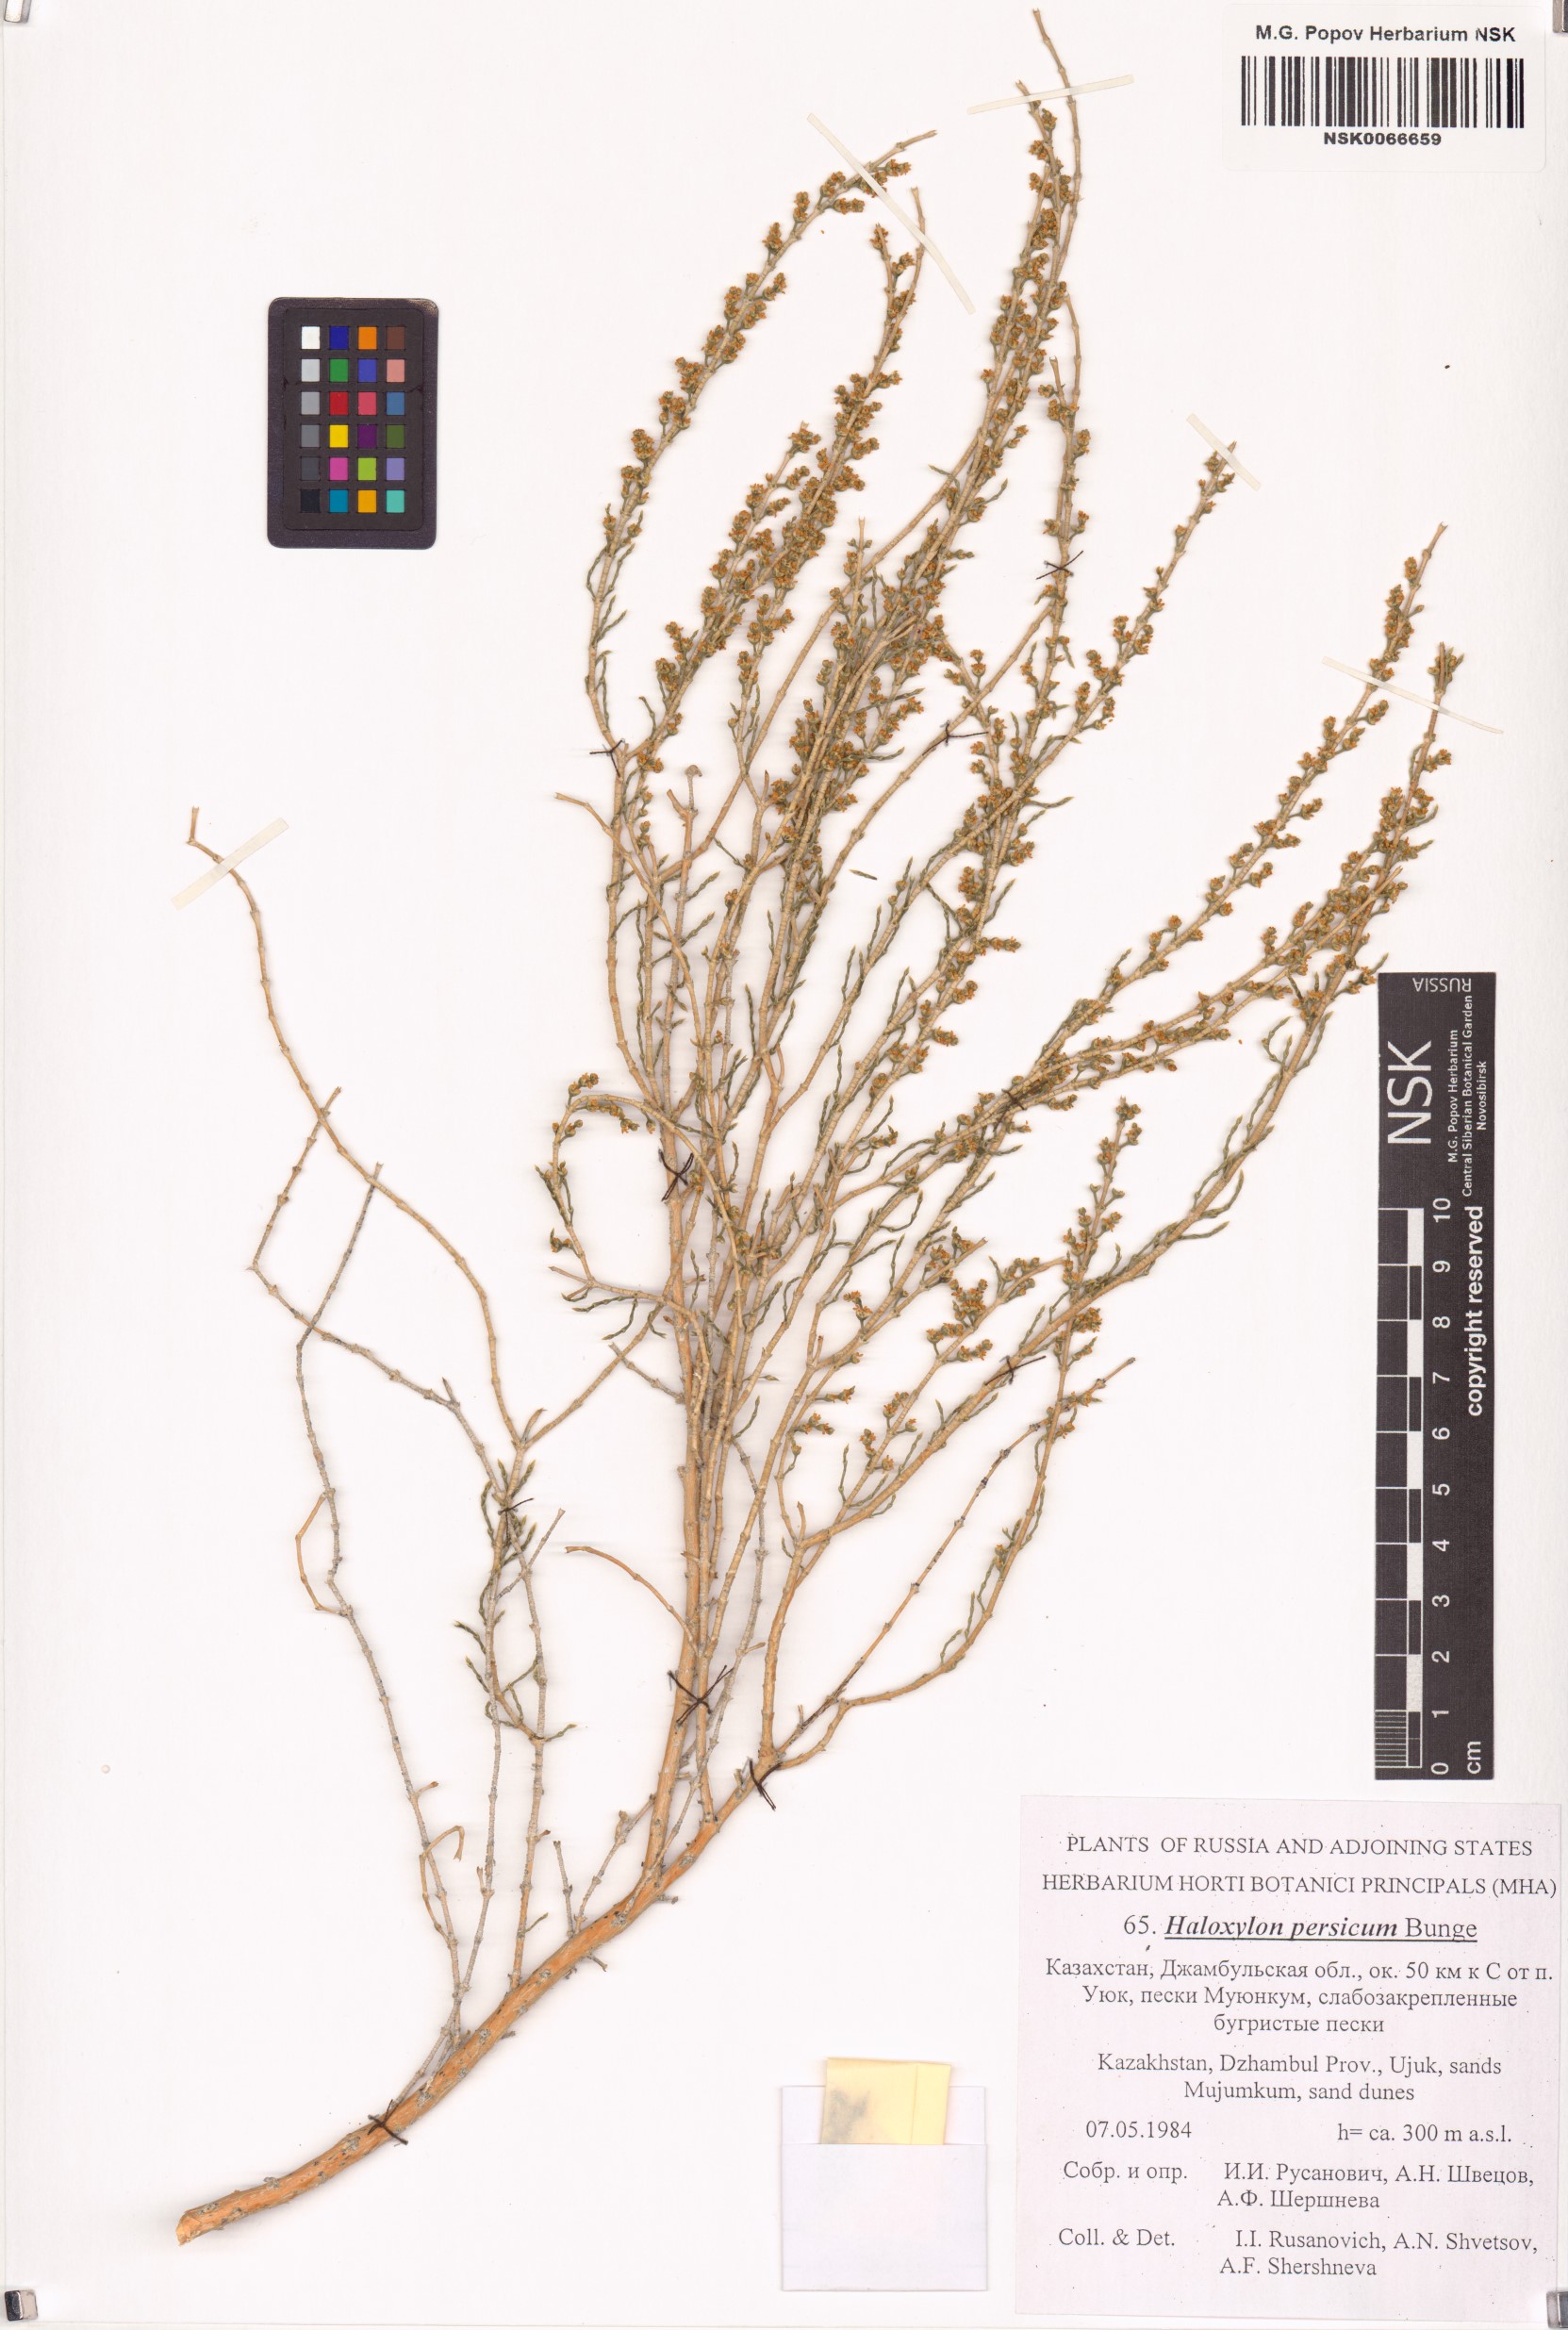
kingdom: Plantae
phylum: Tracheophyta
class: Magnoliopsida
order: Caryophyllales
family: Amaranthaceae
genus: Haloxylon
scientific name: Haloxylon persicum
